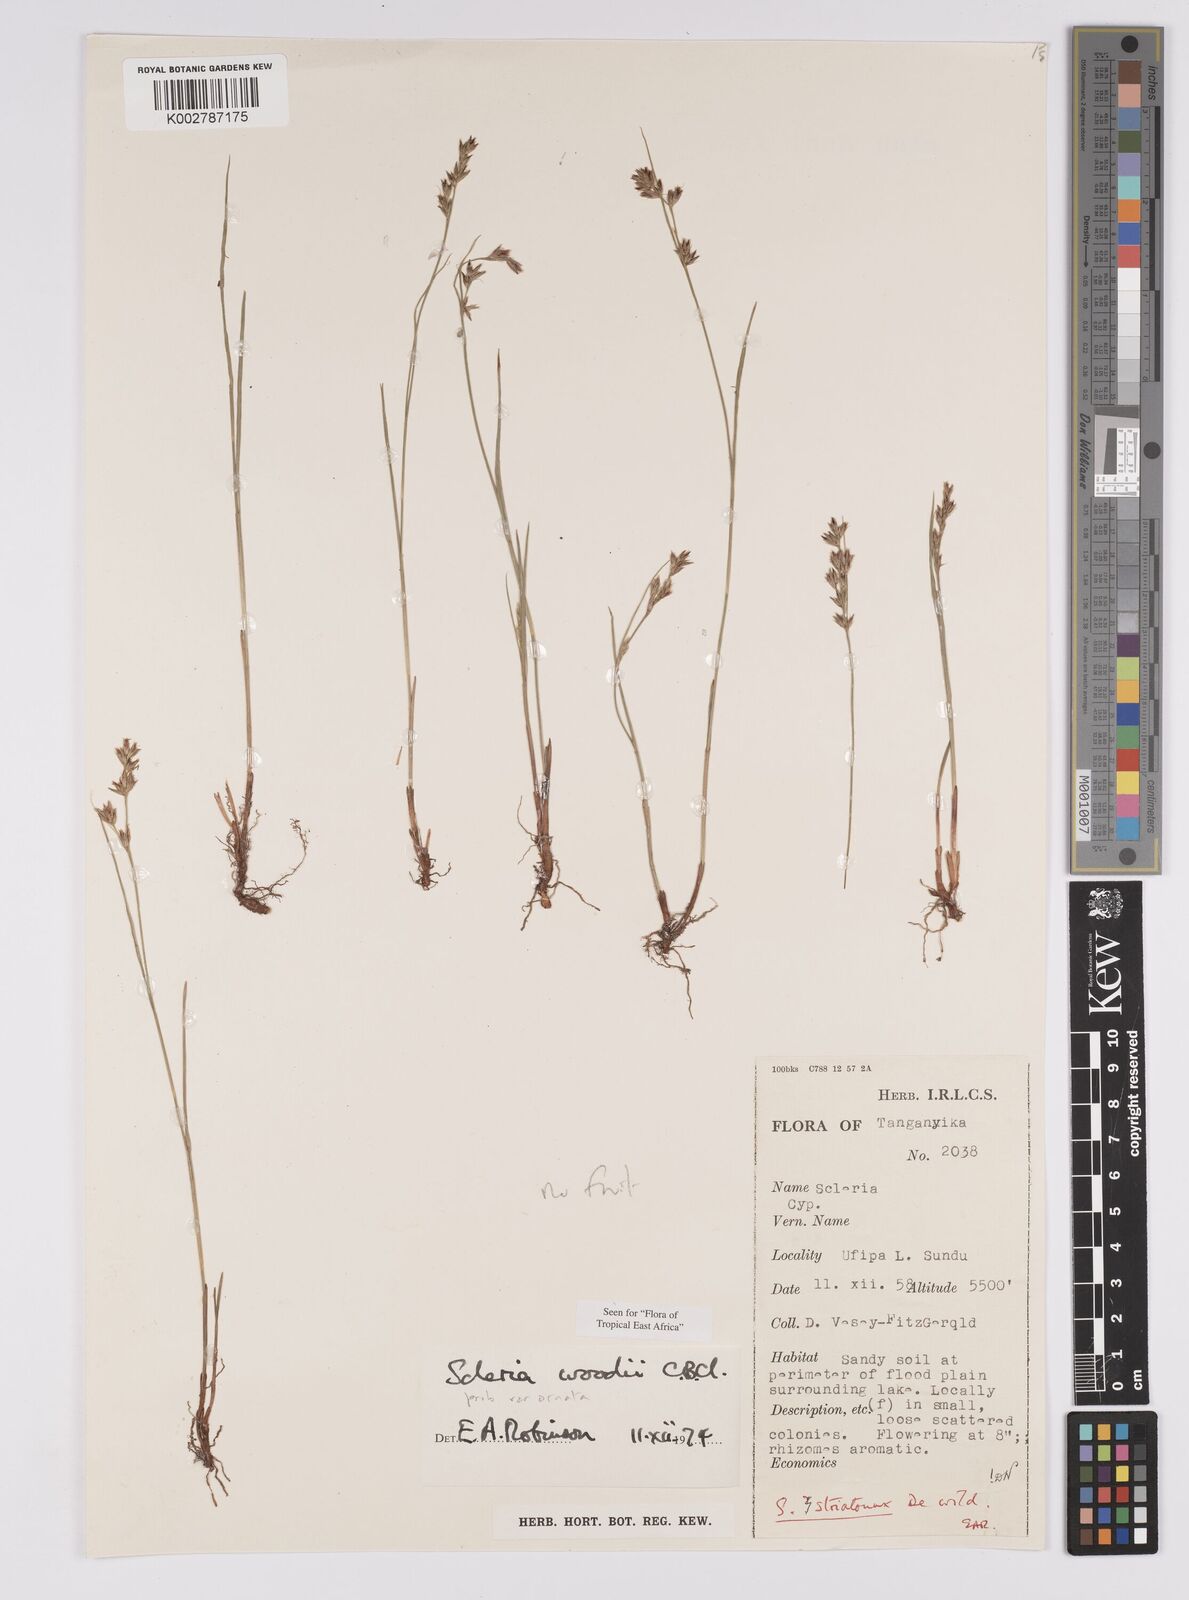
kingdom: Plantae
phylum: Tracheophyta
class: Liliopsida
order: Poales
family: Cyperaceae
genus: Scleria
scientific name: Scleria woodii
